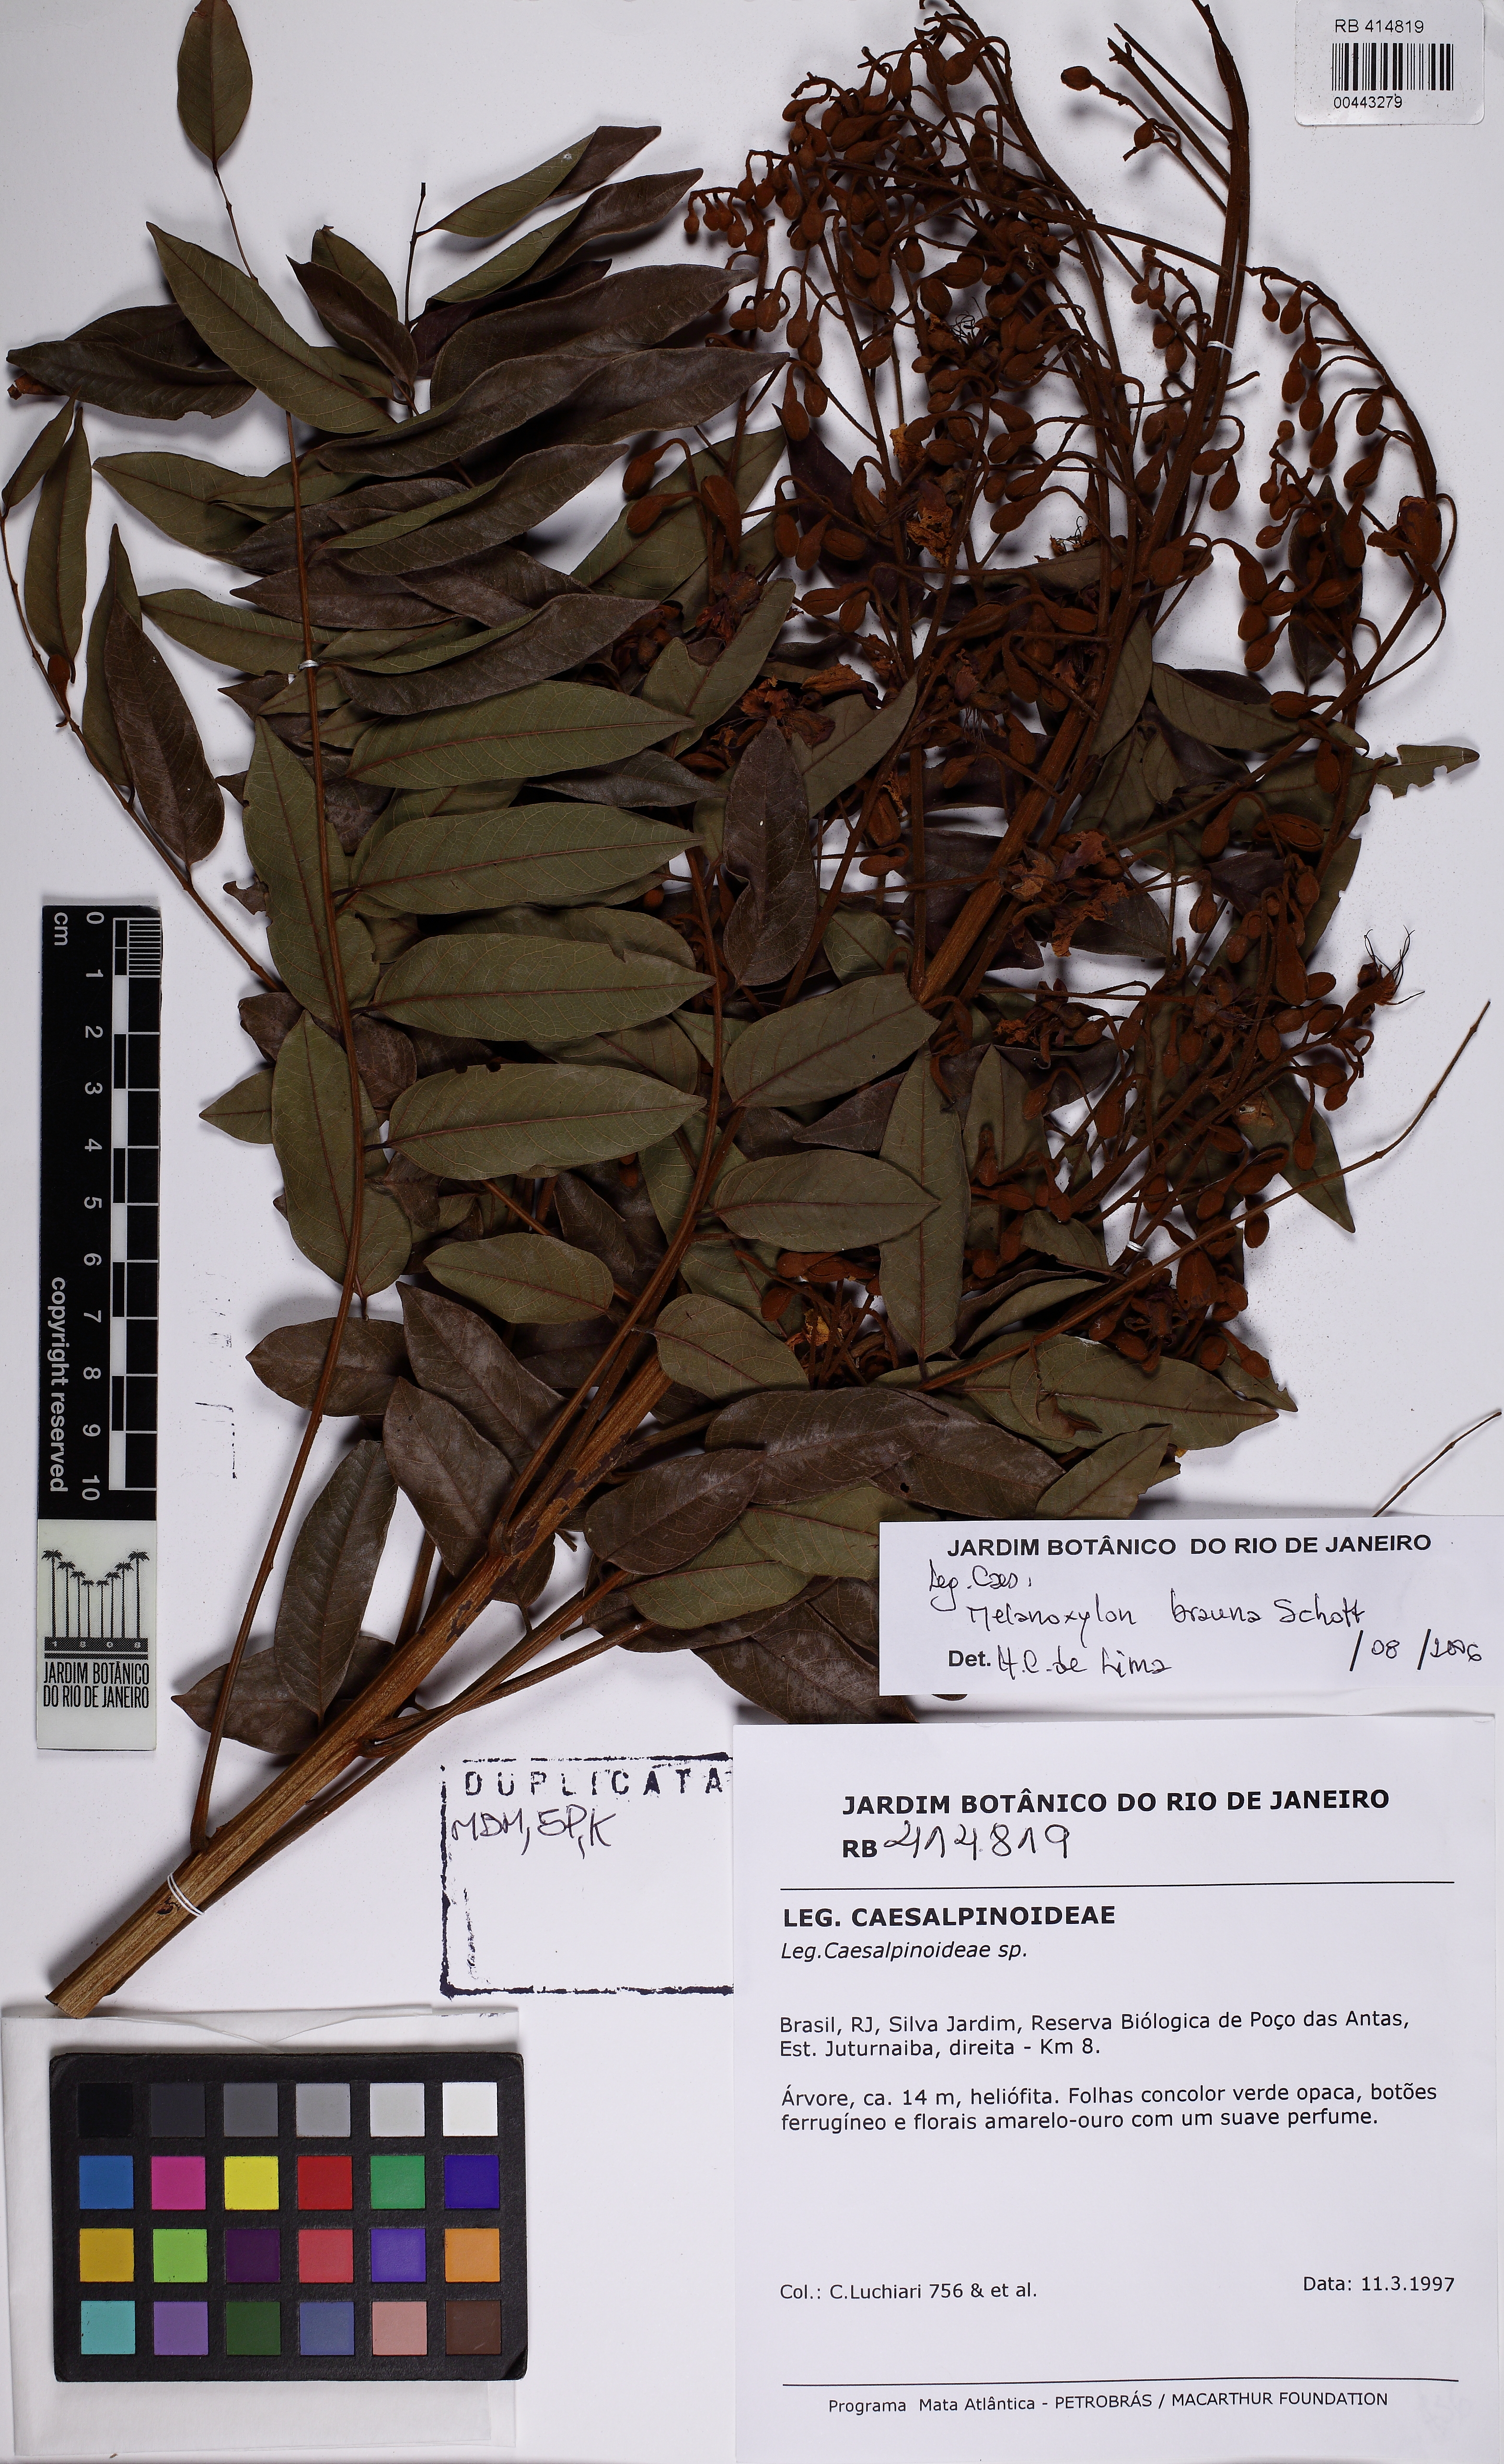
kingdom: Plantae
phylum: Tracheophyta
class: Magnoliopsida
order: Fabales
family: Fabaceae
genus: Melanoxylon
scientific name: Melanoxylon brauna
